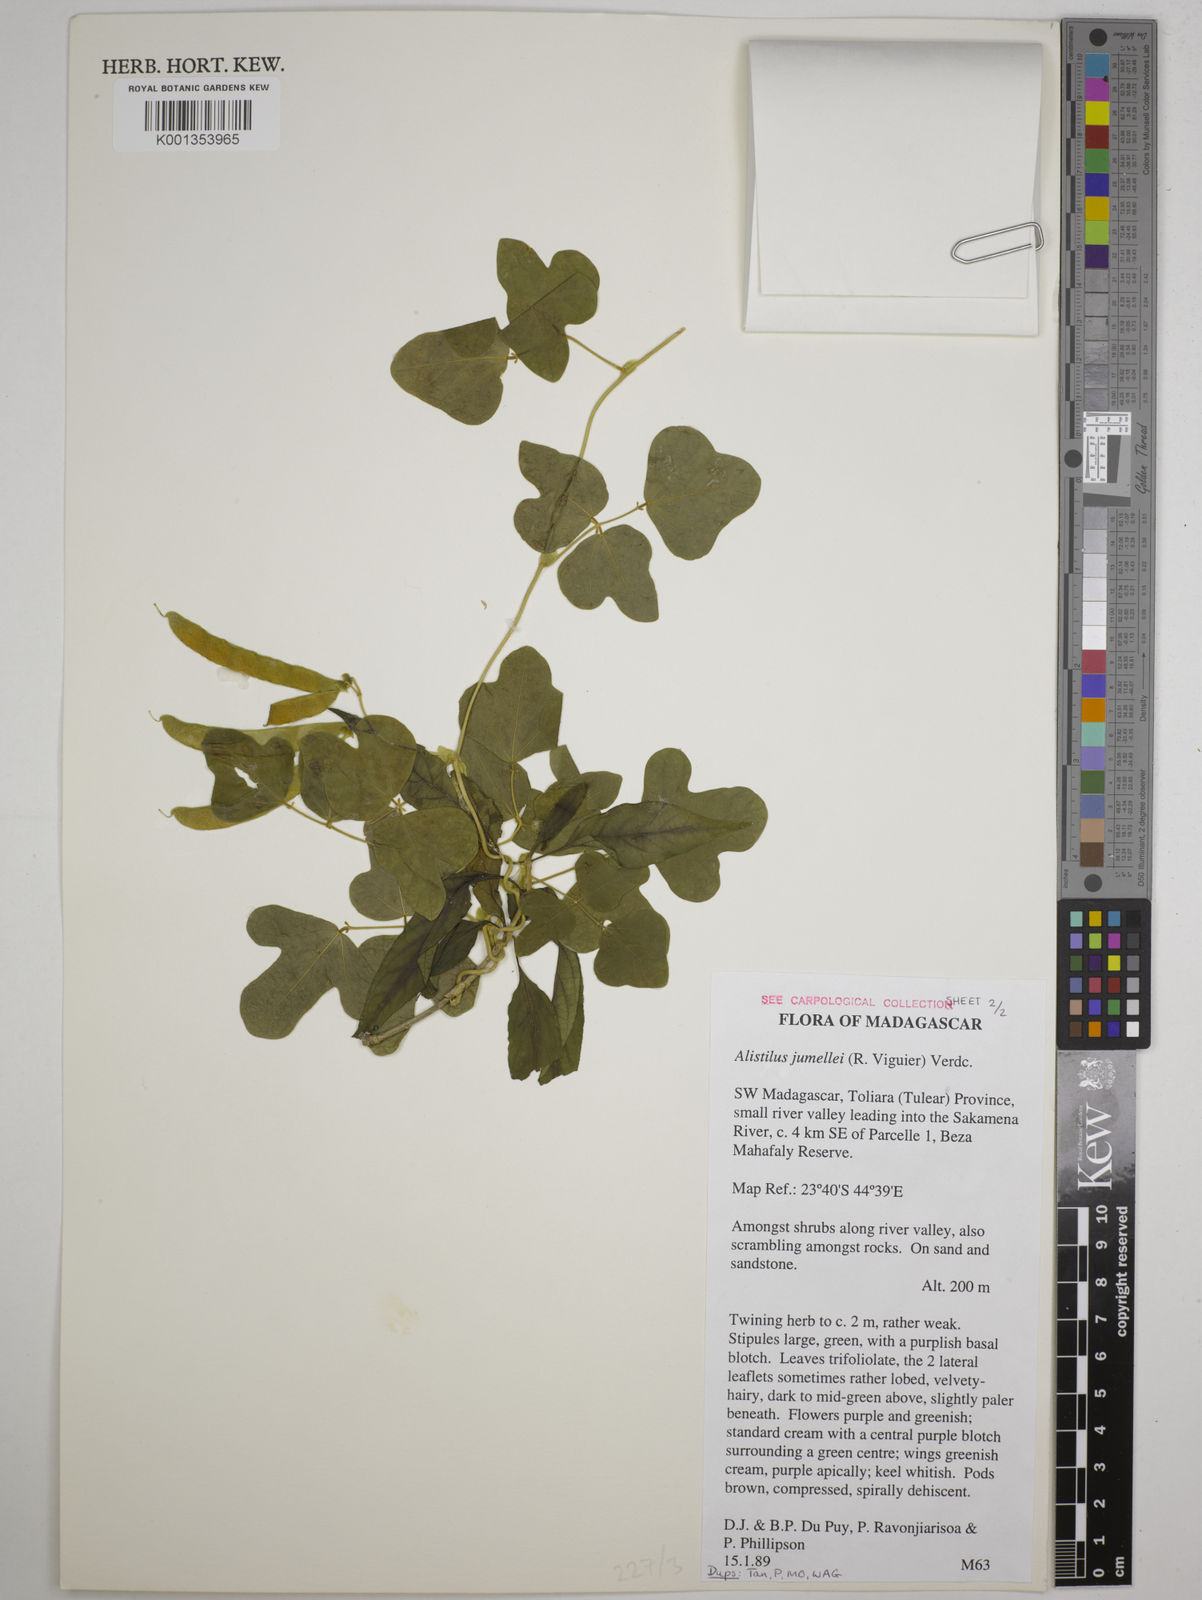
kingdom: Plantae
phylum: Tracheophyta
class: Magnoliopsida
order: Fabales
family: Fabaceae
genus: Alistilus
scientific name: Alistilus jumellei
